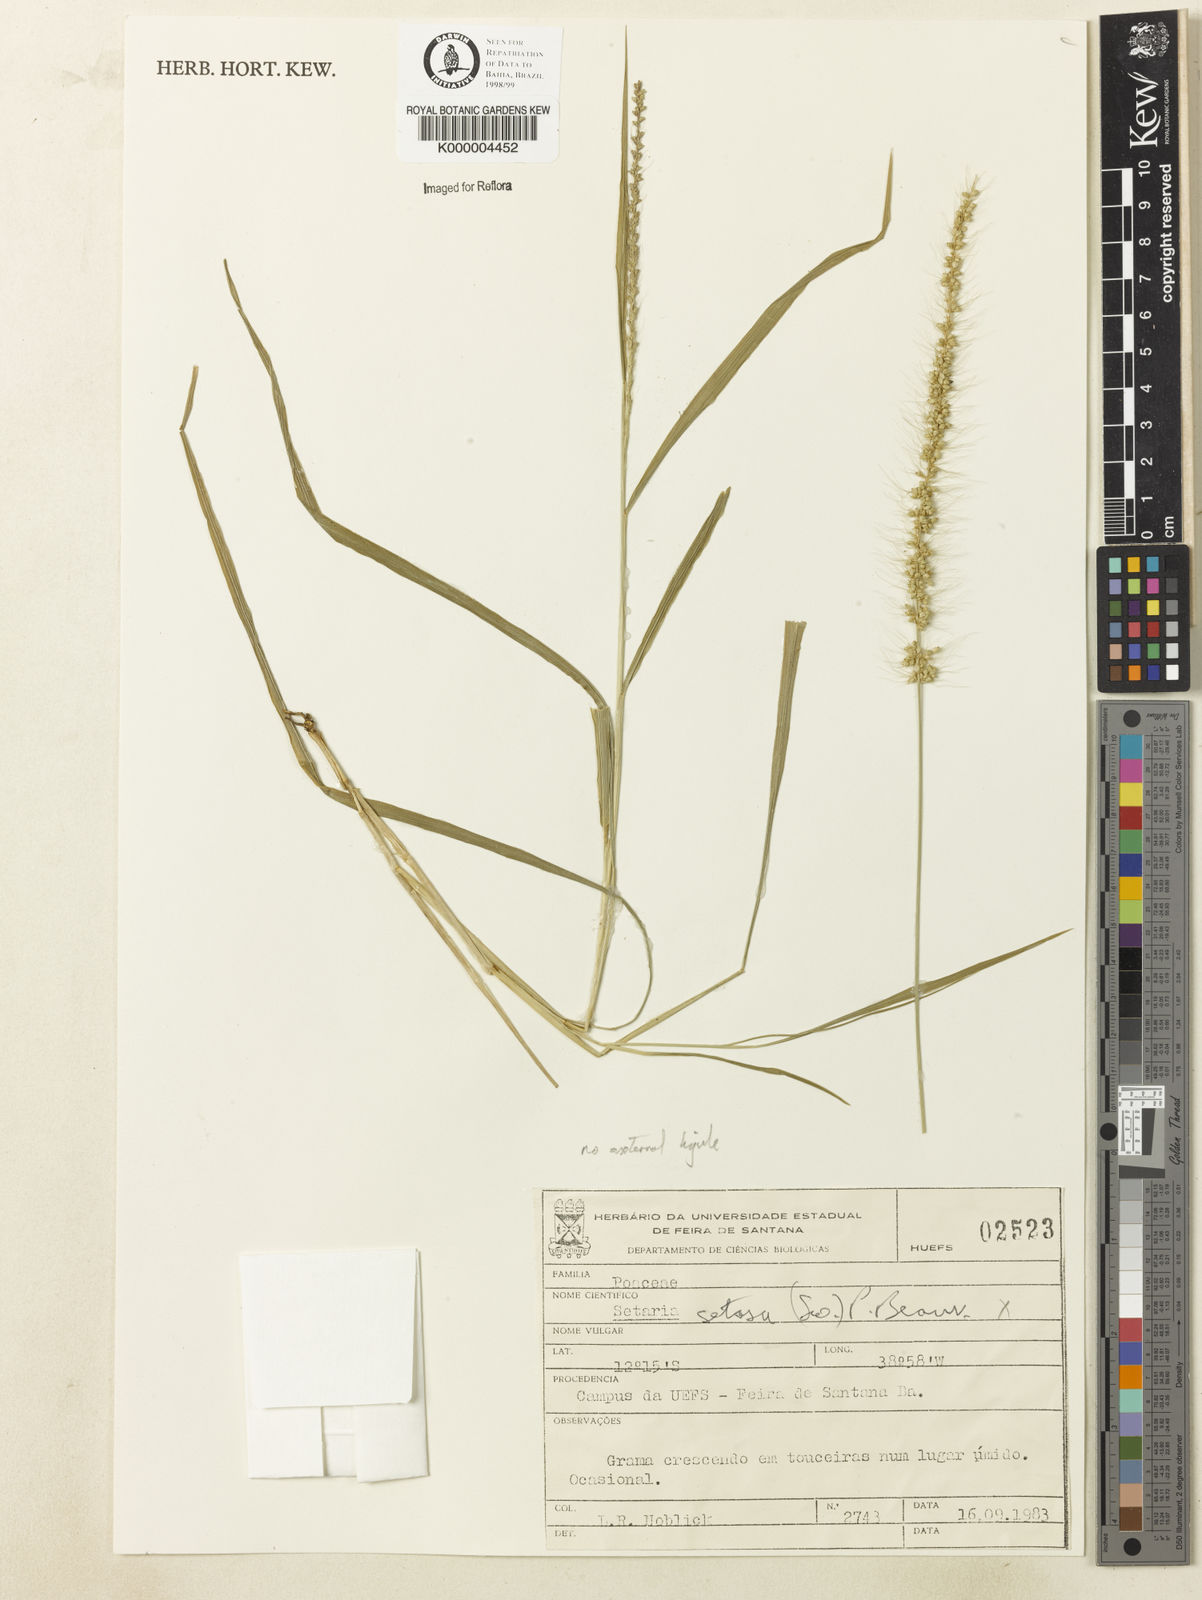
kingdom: Plantae
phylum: Tracheophyta
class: Liliopsida
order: Poales
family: Poaceae
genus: Setaria
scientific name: Setaria setosa
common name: West indies bristle grass
